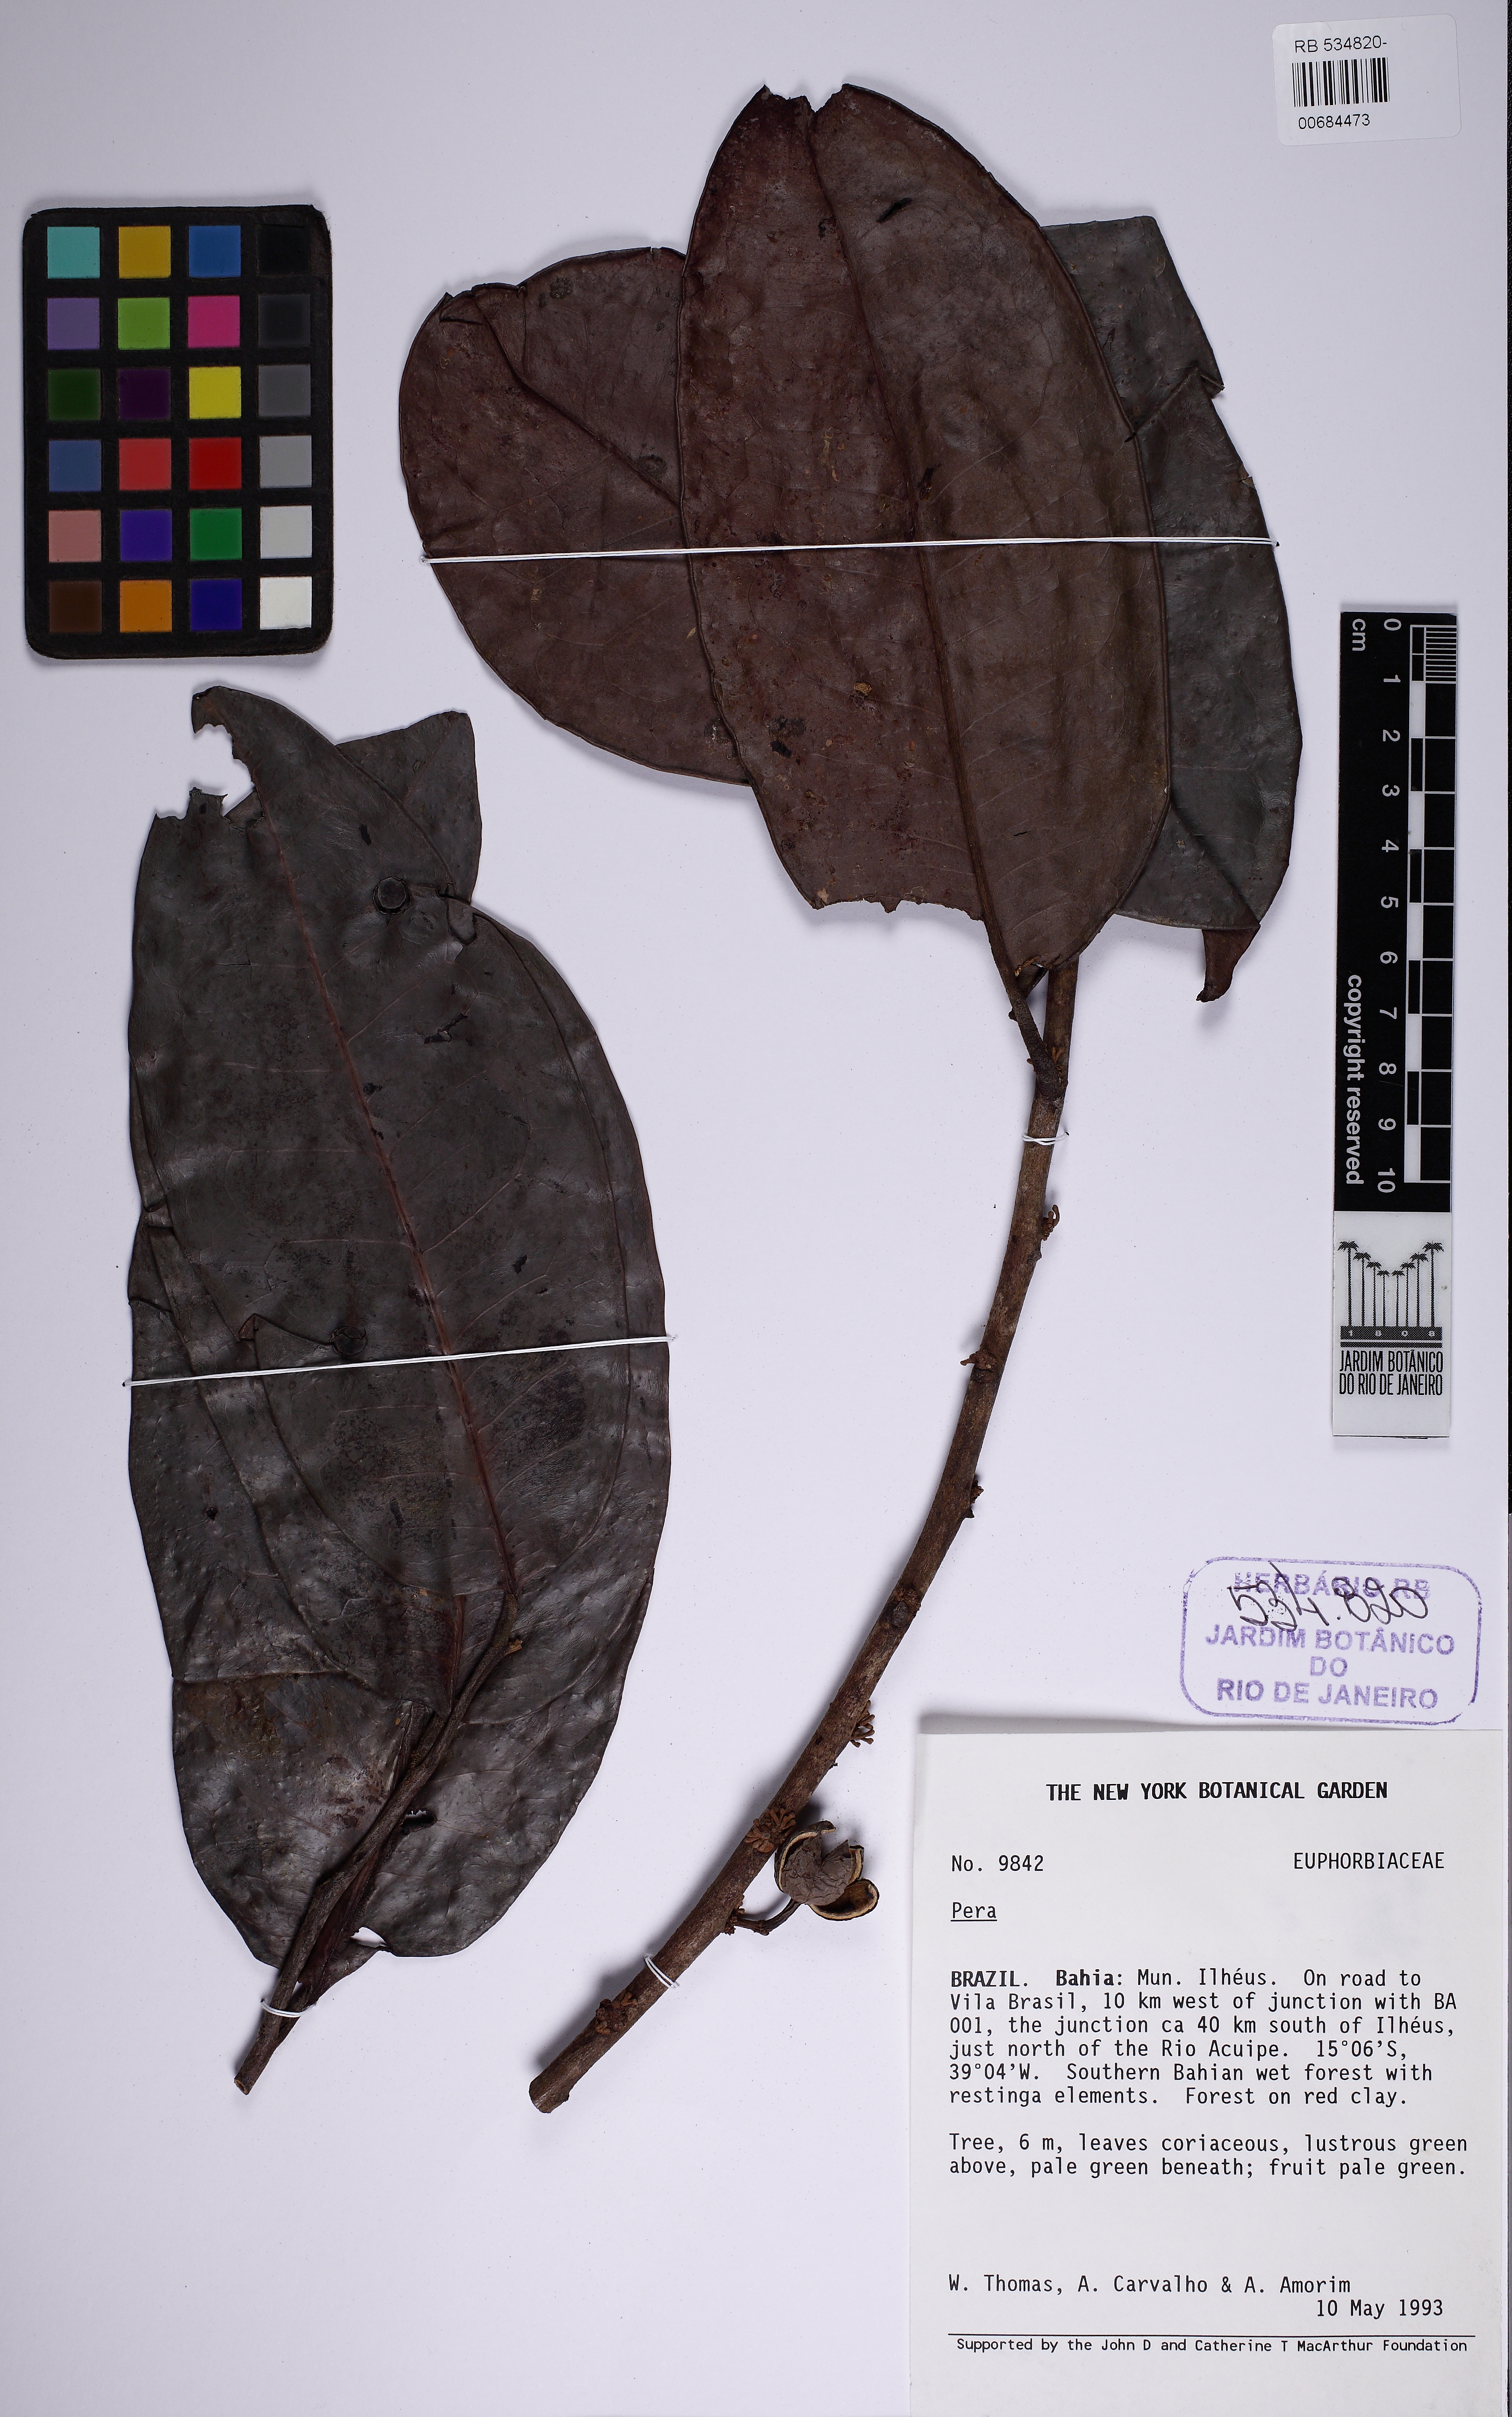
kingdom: Plantae
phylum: Tracheophyta
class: Magnoliopsida
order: Malpighiales
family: Peraceae
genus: Pera
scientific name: Pera glabrata
